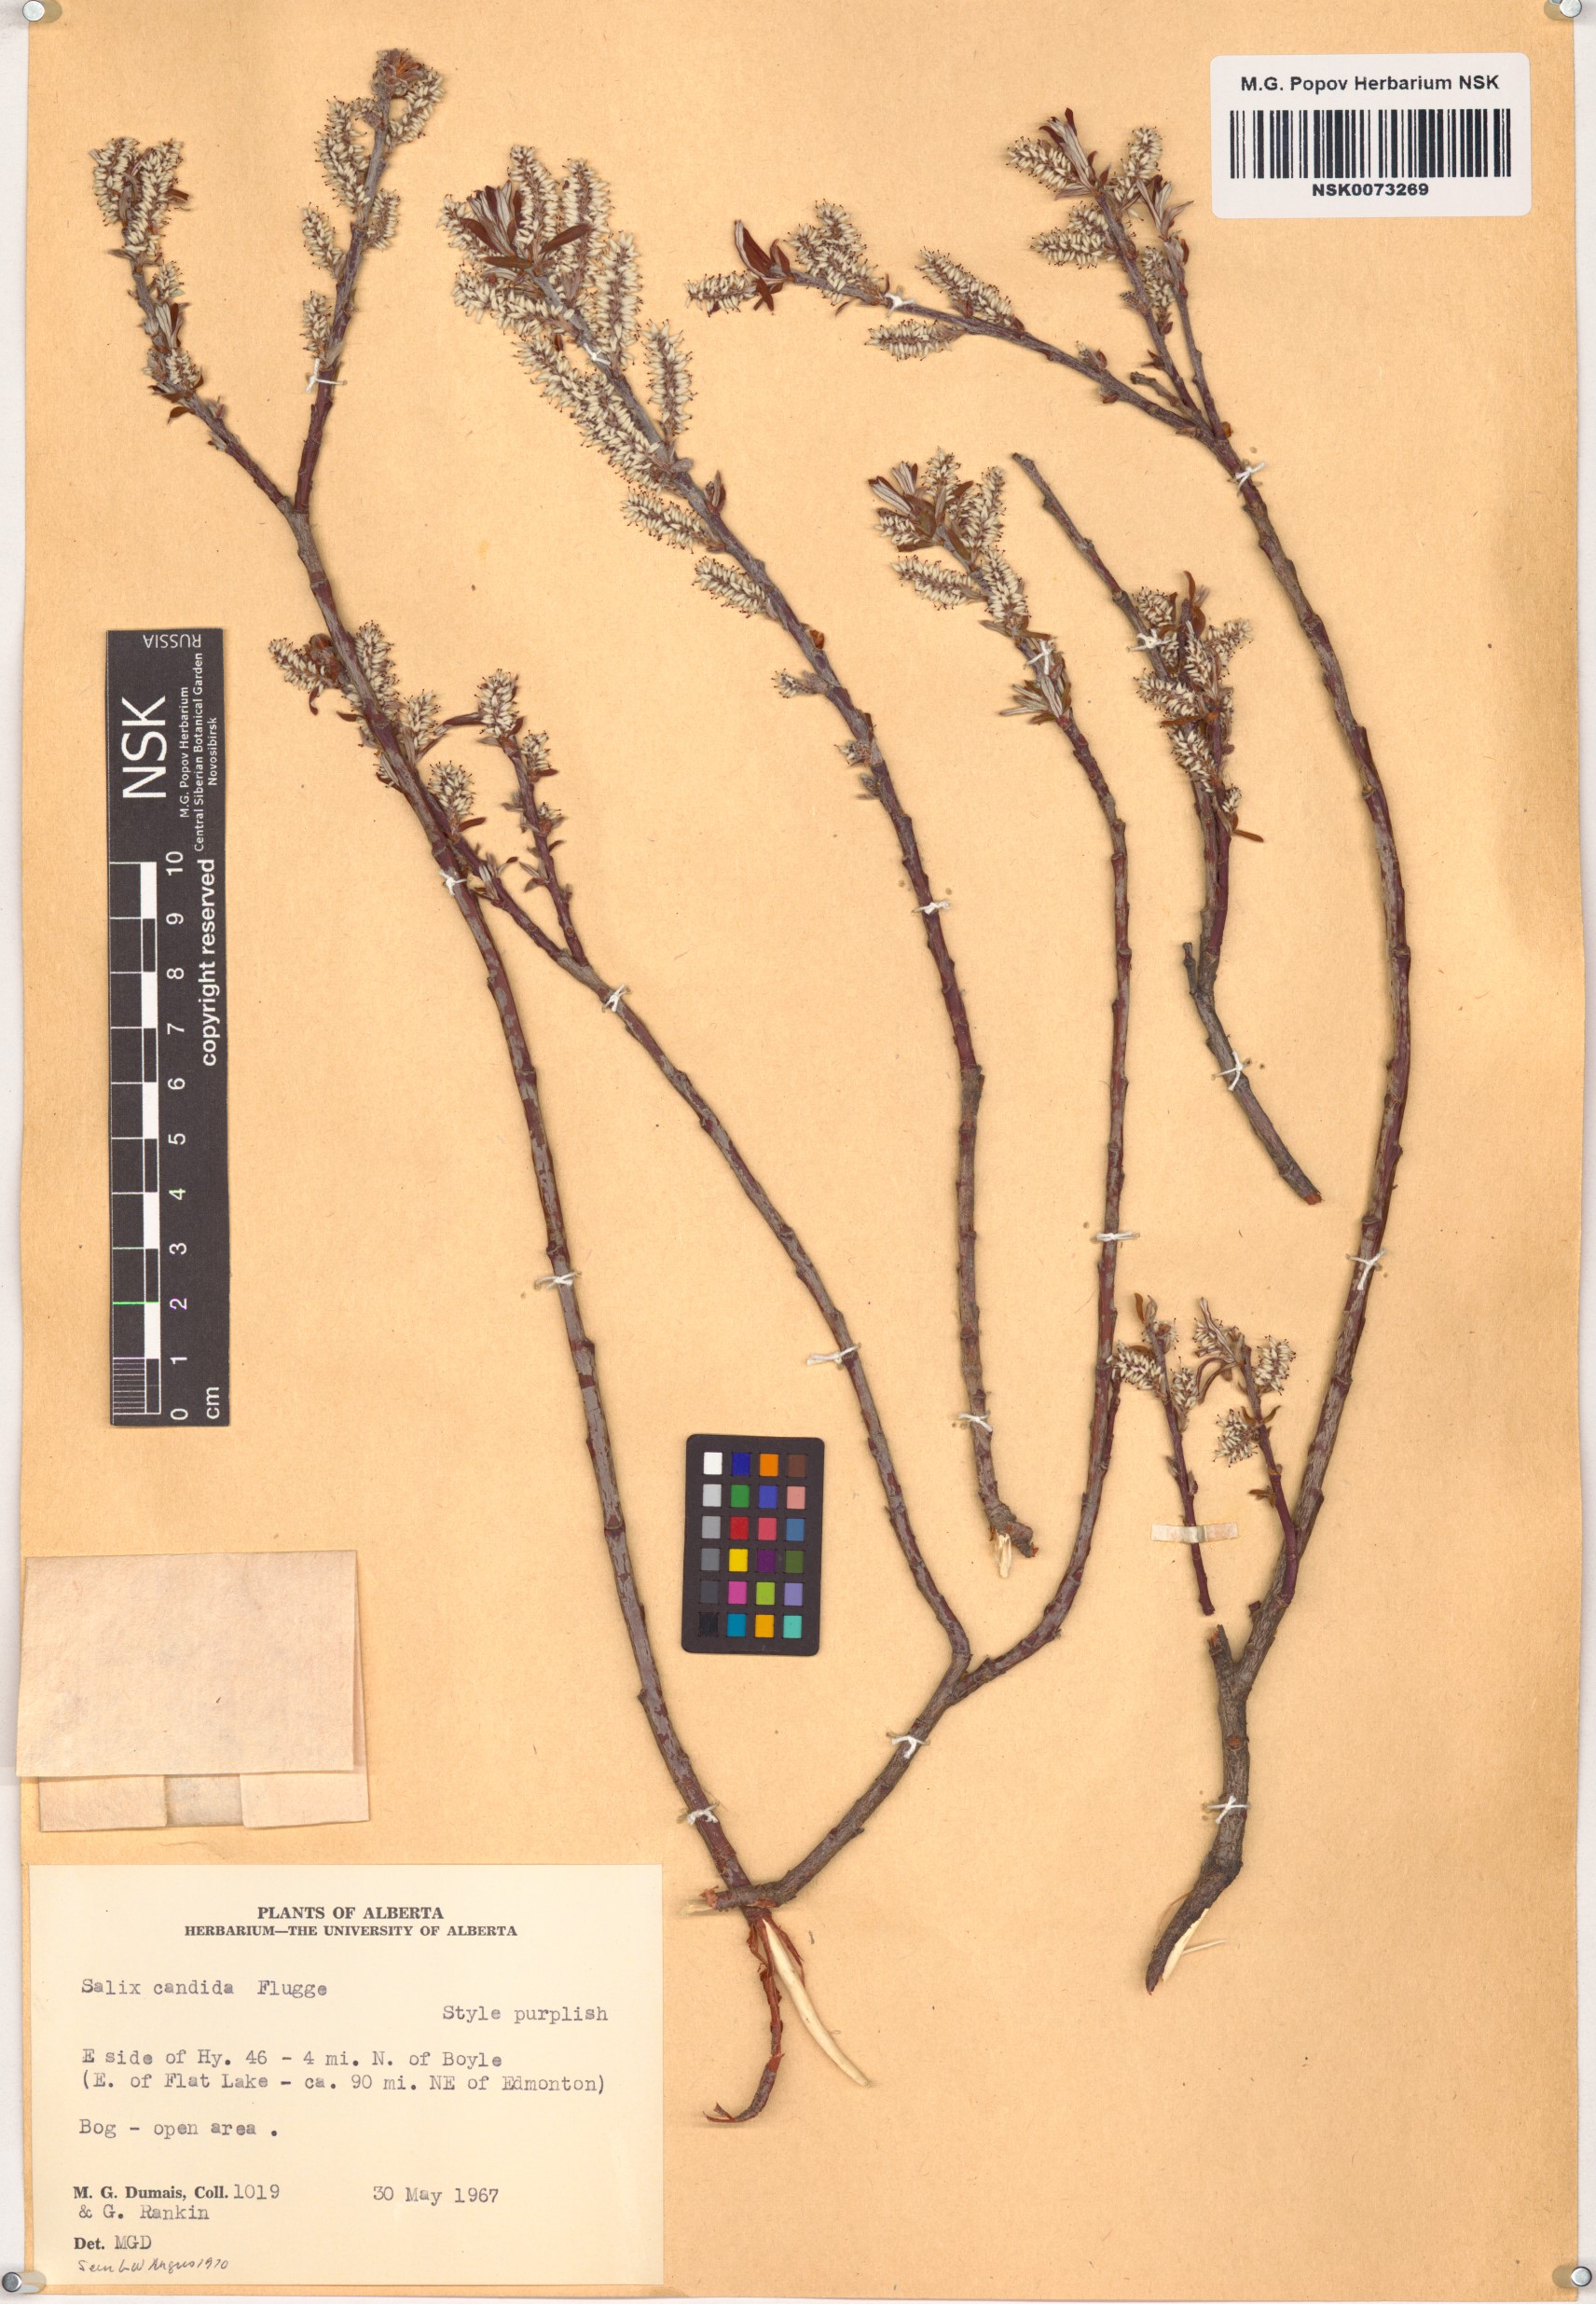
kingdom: Plantae
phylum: Tracheophyta
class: Magnoliopsida
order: Malpighiales
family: Salicaceae
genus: Salix
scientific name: Salix candida
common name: Hoary willow
